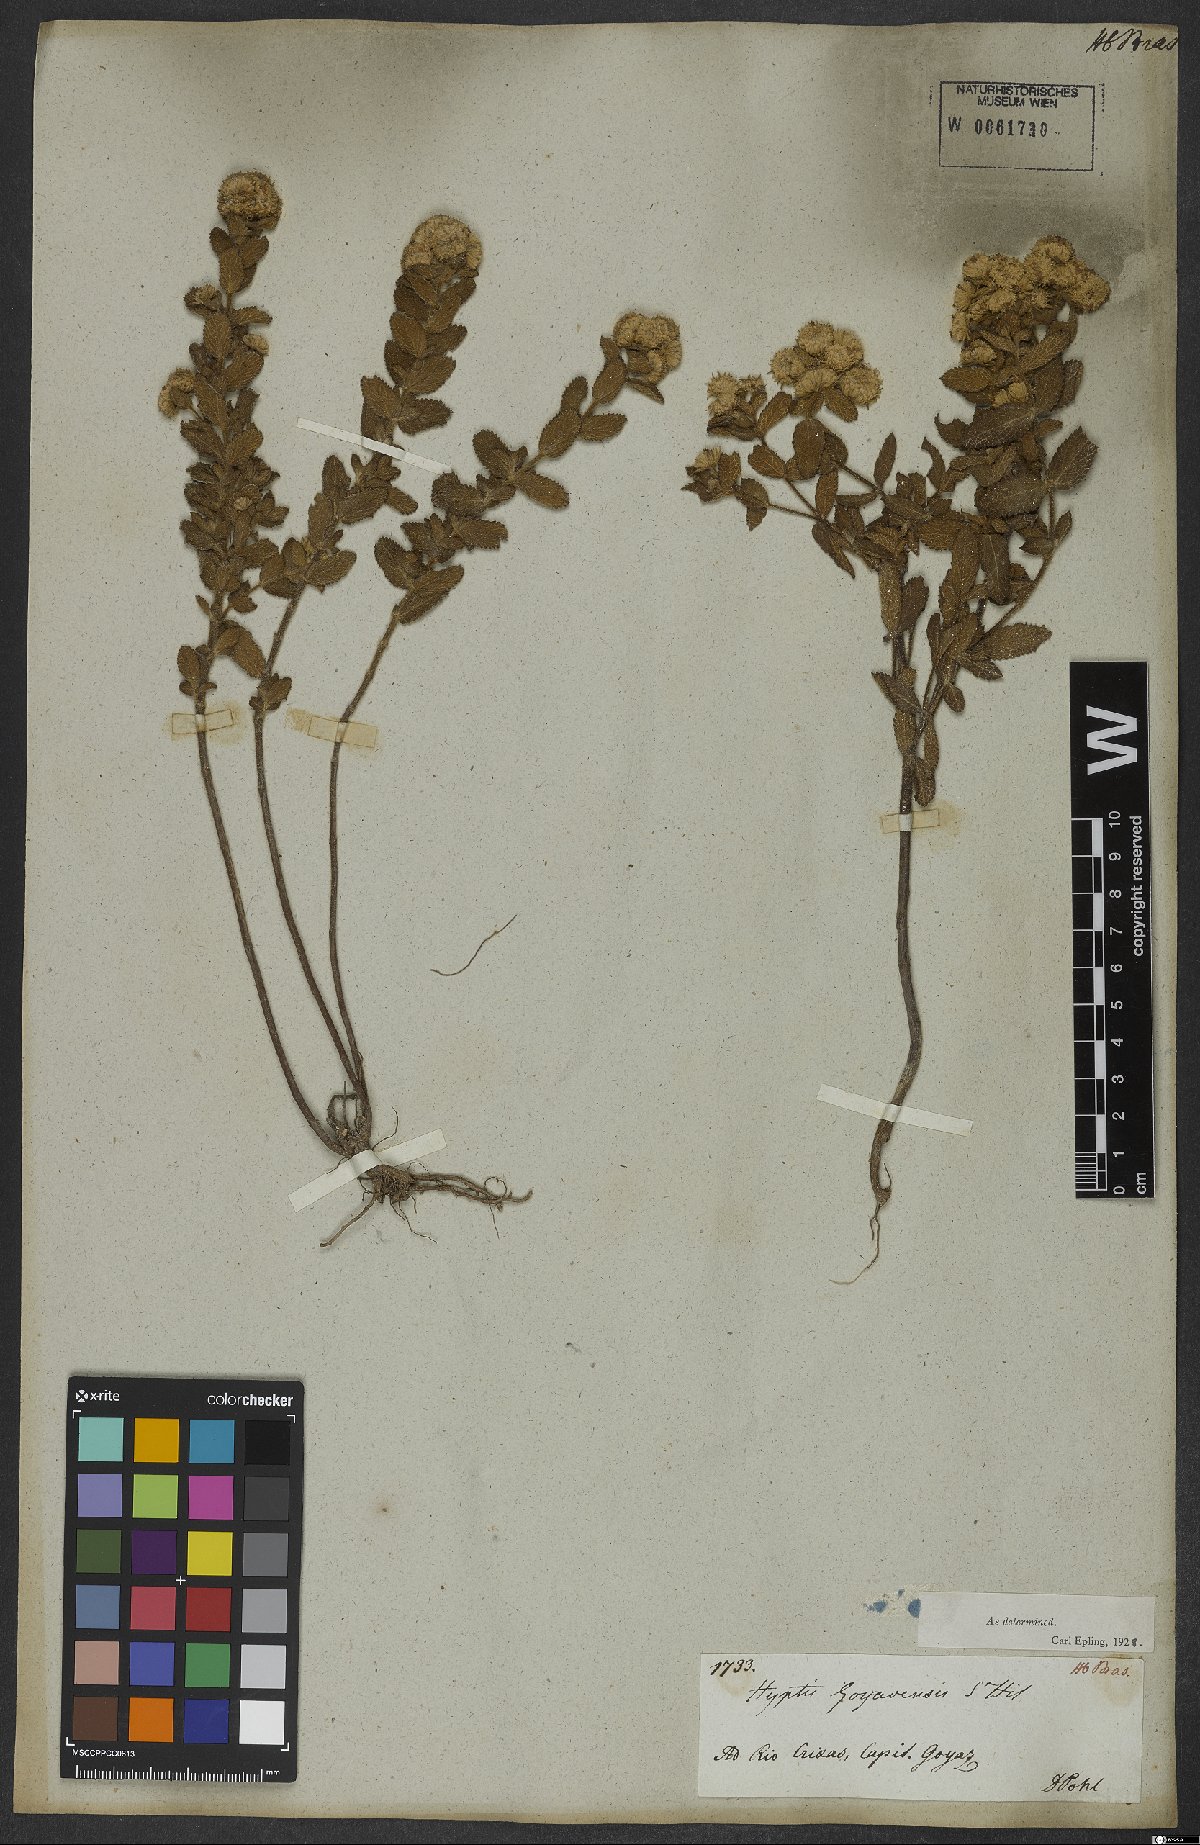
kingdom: Plantae
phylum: Tracheophyta
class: Magnoliopsida
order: Lamiales
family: Lamiaceae
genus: Hyptis
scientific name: Hyptis crenata
